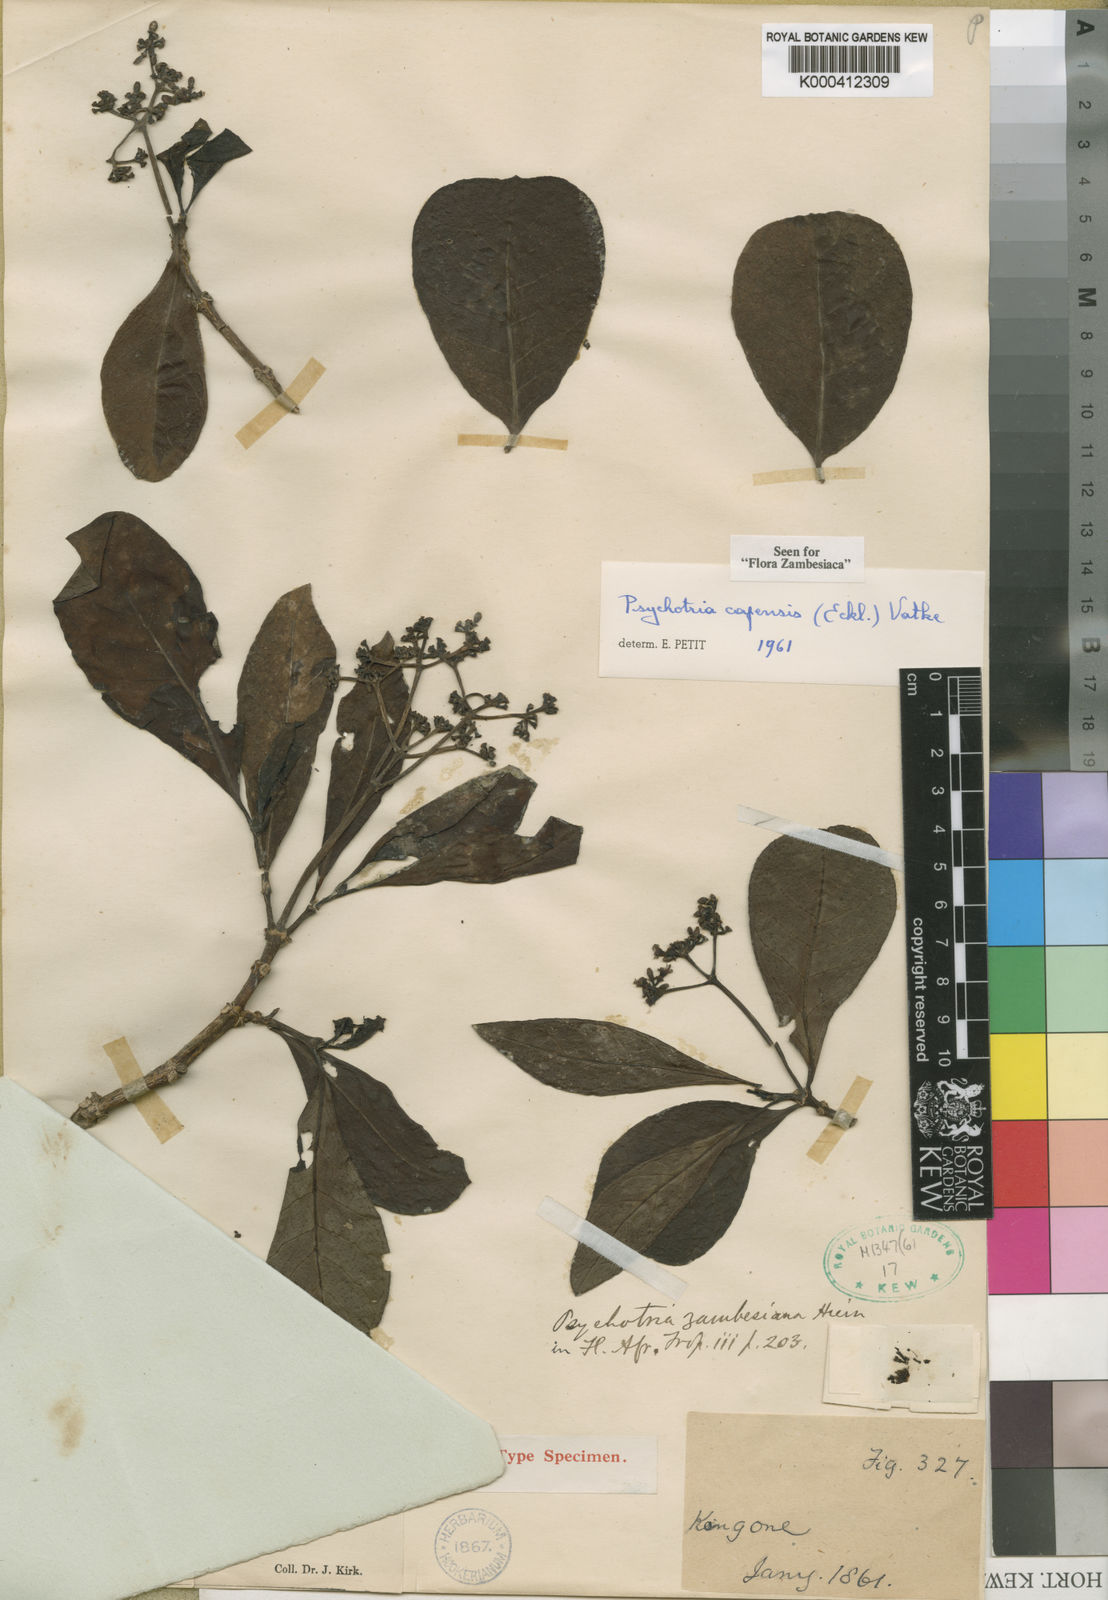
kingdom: Plantae
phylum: Tracheophyta
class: Magnoliopsida
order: Gentianales
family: Rubiaceae
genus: Psychotria
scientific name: Psychotria capensis
